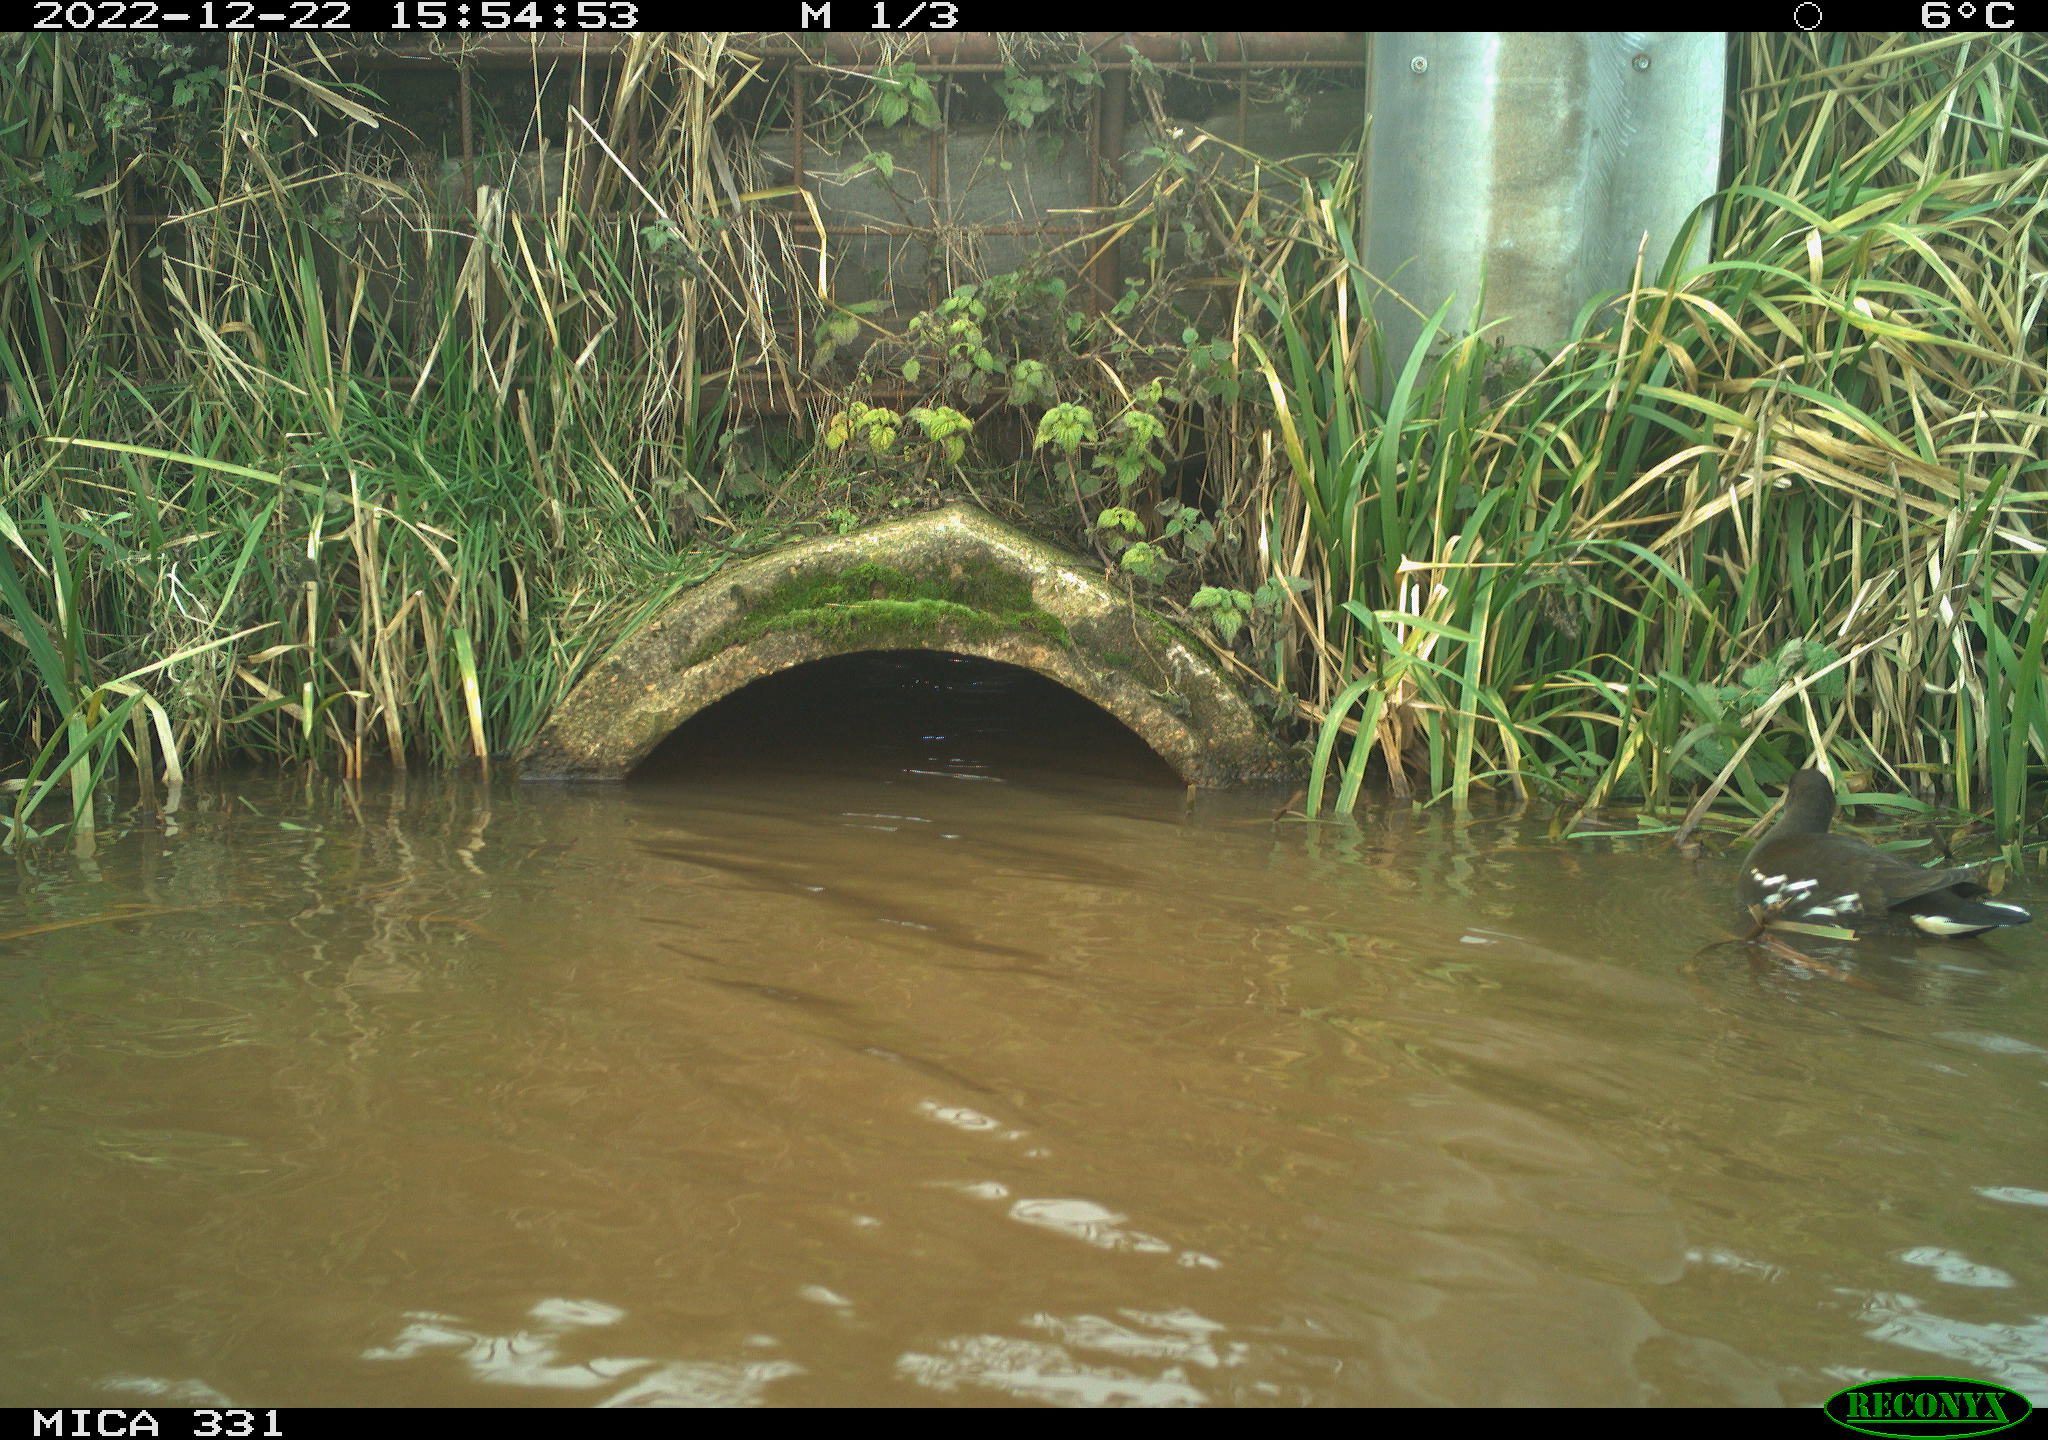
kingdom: Animalia
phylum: Chordata
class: Aves
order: Gruiformes
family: Rallidae
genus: Gallinula
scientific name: Gallinula chloropus
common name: Common moorhen
